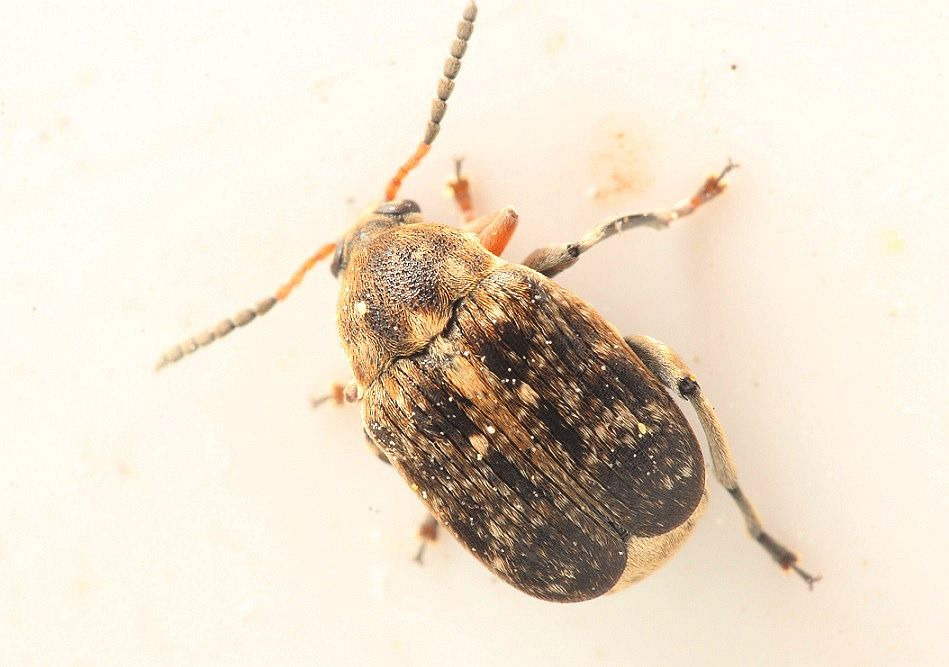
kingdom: Animalia
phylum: Arthropoda
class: Insecta
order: Coleoptera
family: Chrysomelidae
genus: Bruchus
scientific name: Bruchus rufimanus
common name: Hestebønnebille
